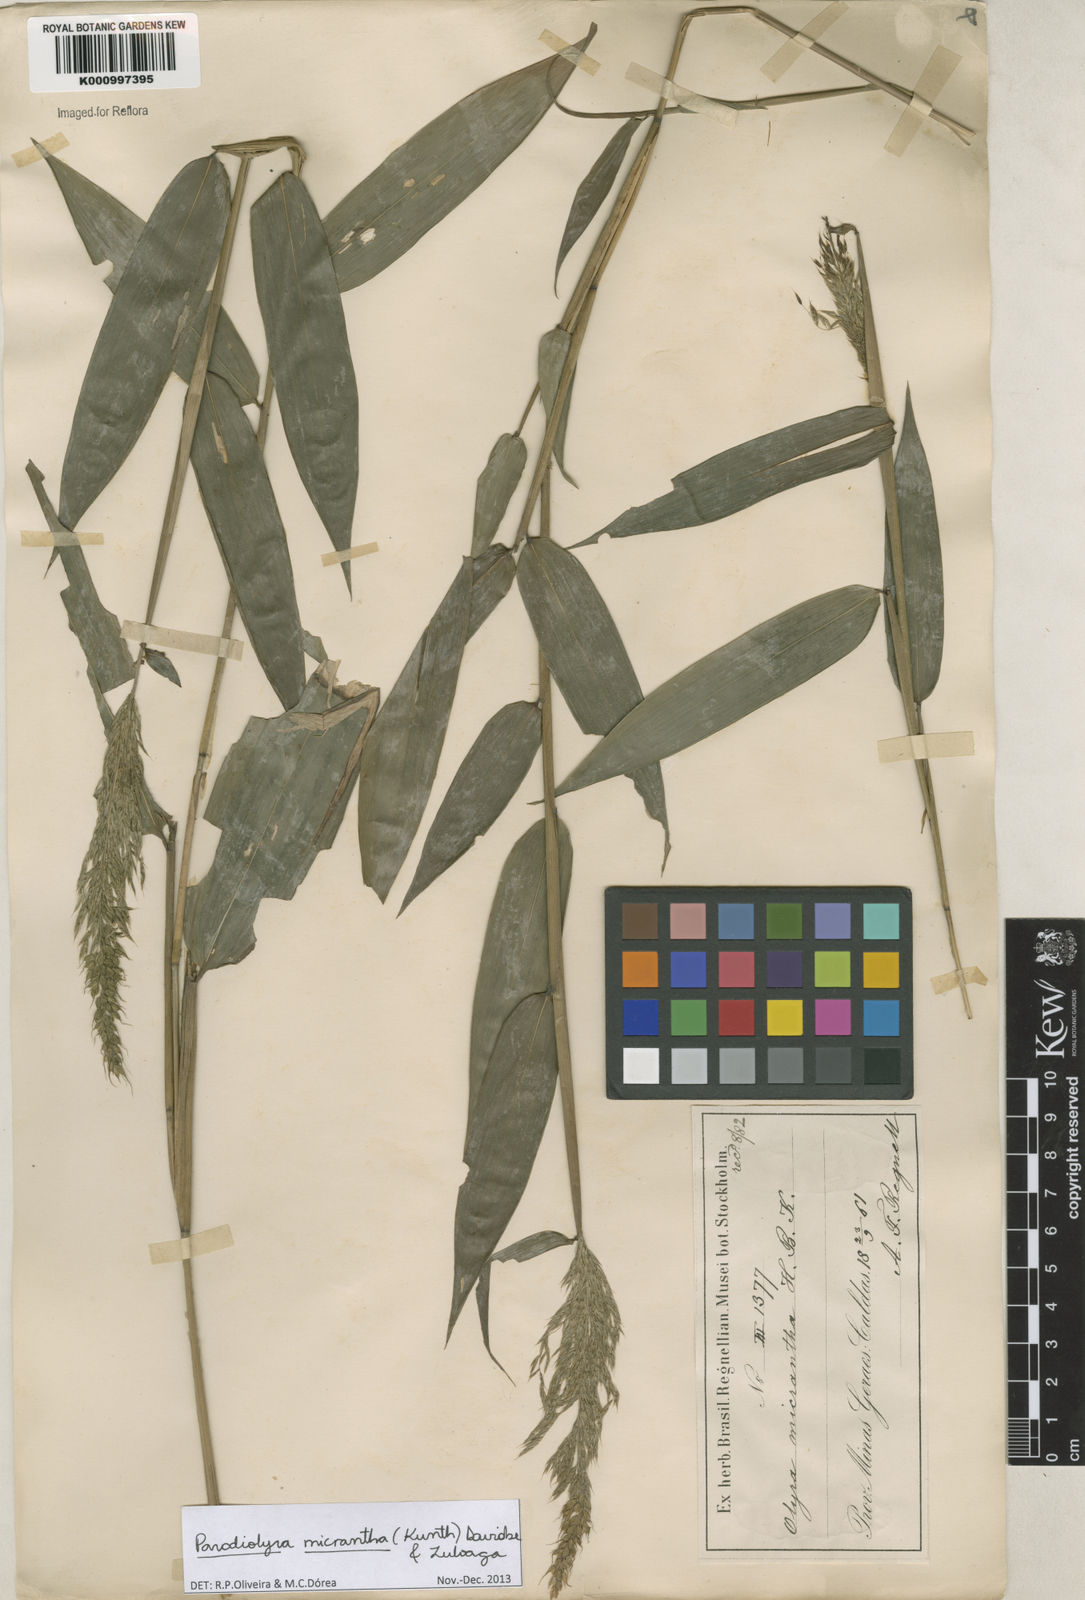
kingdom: Plantae
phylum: Tracheophyta
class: Liliopsida
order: Poales
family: Poaceae
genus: Taquara
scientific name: Taquara micrantha
